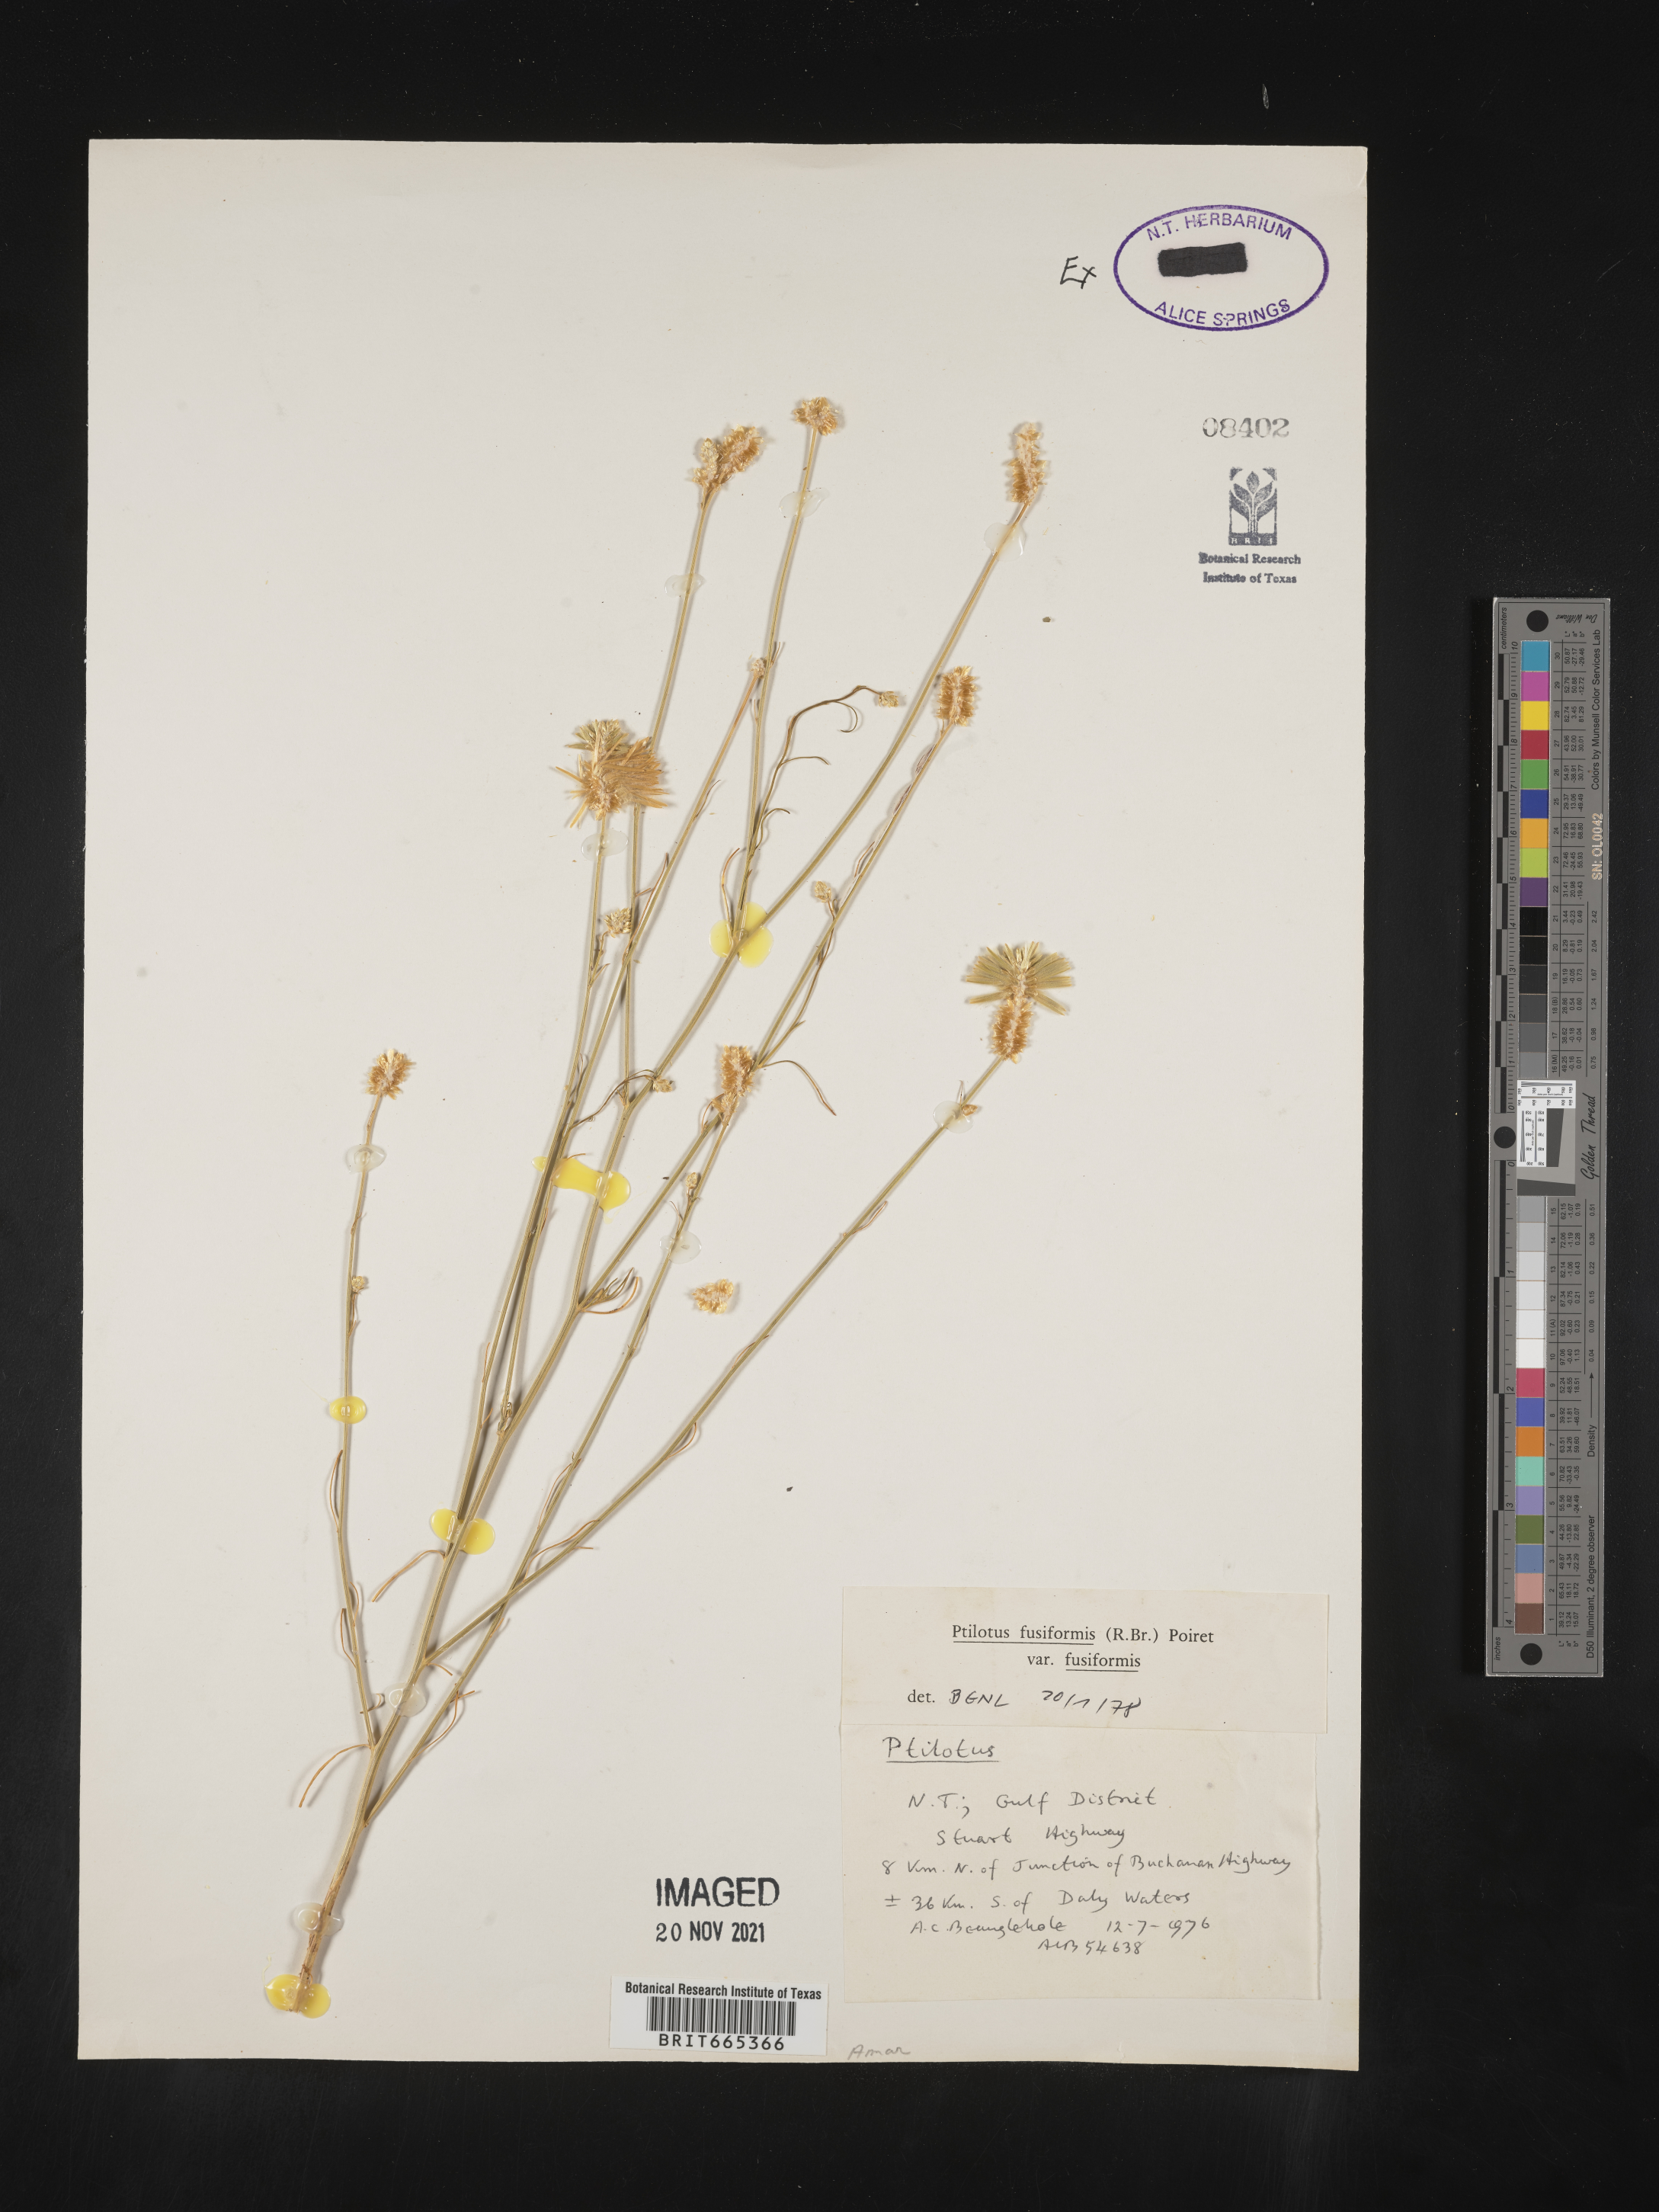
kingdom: Plantae
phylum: Tracheophyta
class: Magnoliopsida
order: Caryophyllales
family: Amaranthaceae
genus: Ptilotus
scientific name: Ptilotus
